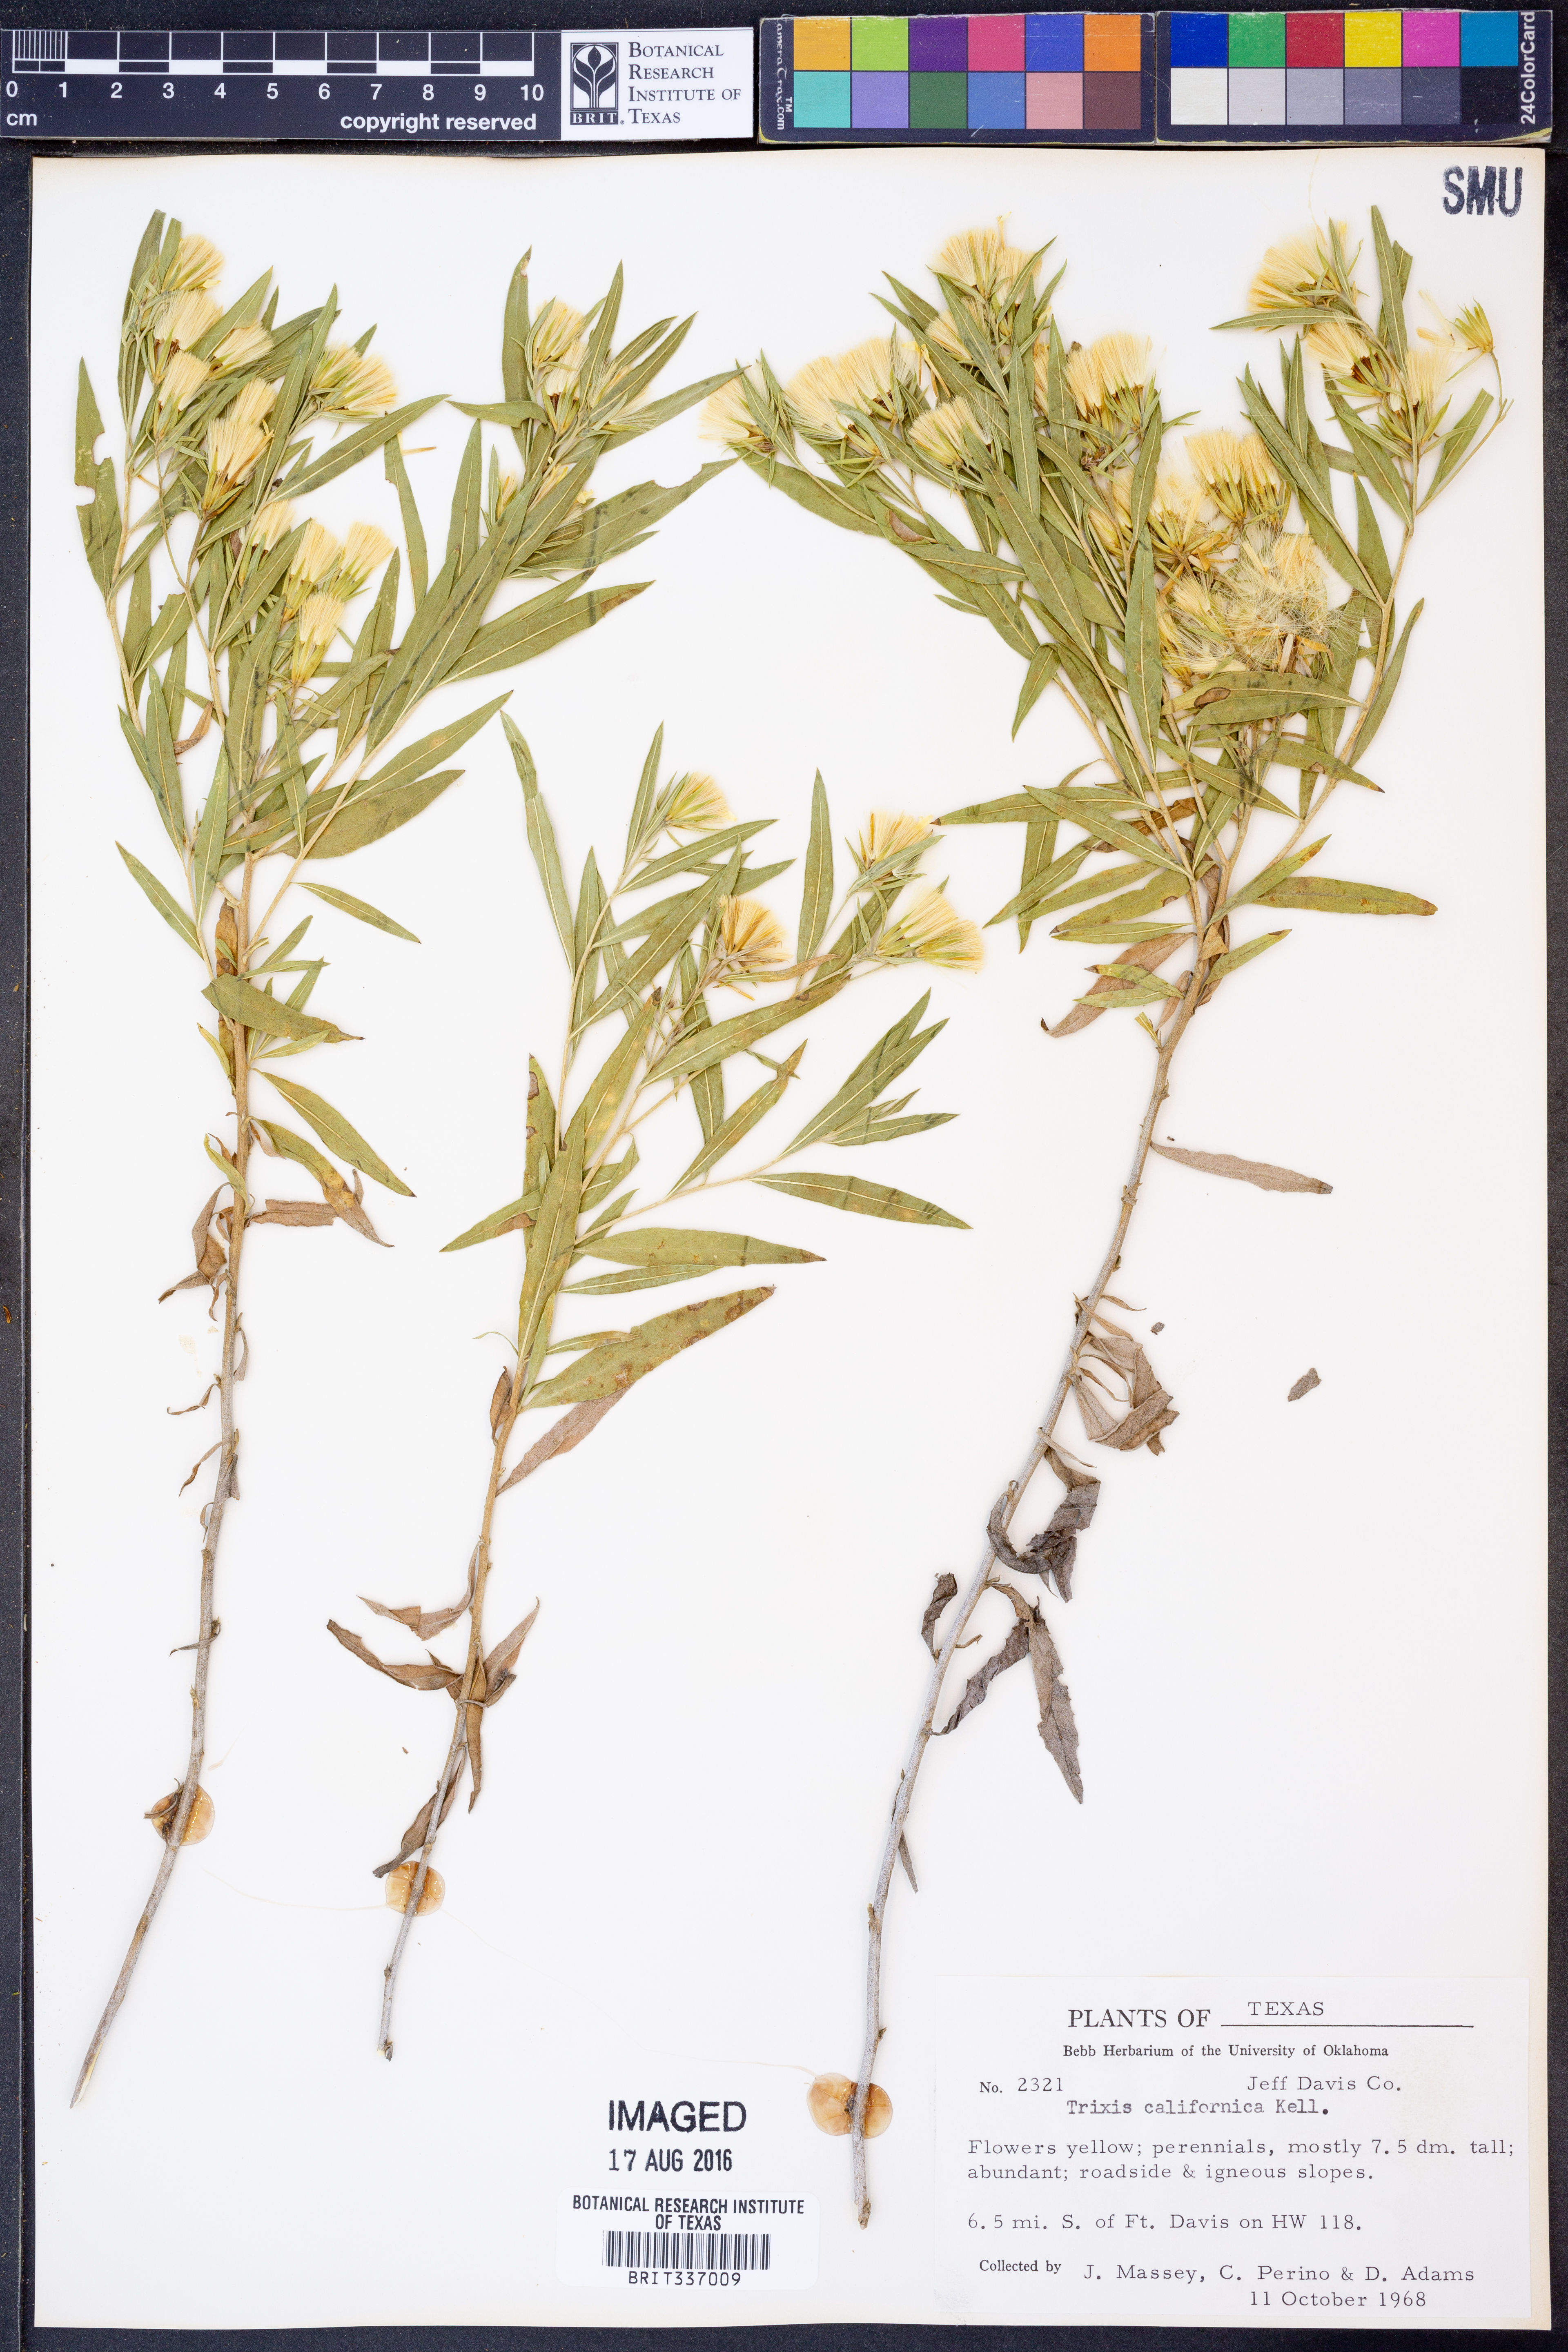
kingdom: Plantae
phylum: Tracheophyta
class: Magnoliopsida
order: Asterales
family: Asteraceae
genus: Trixis
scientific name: Trixis californica
